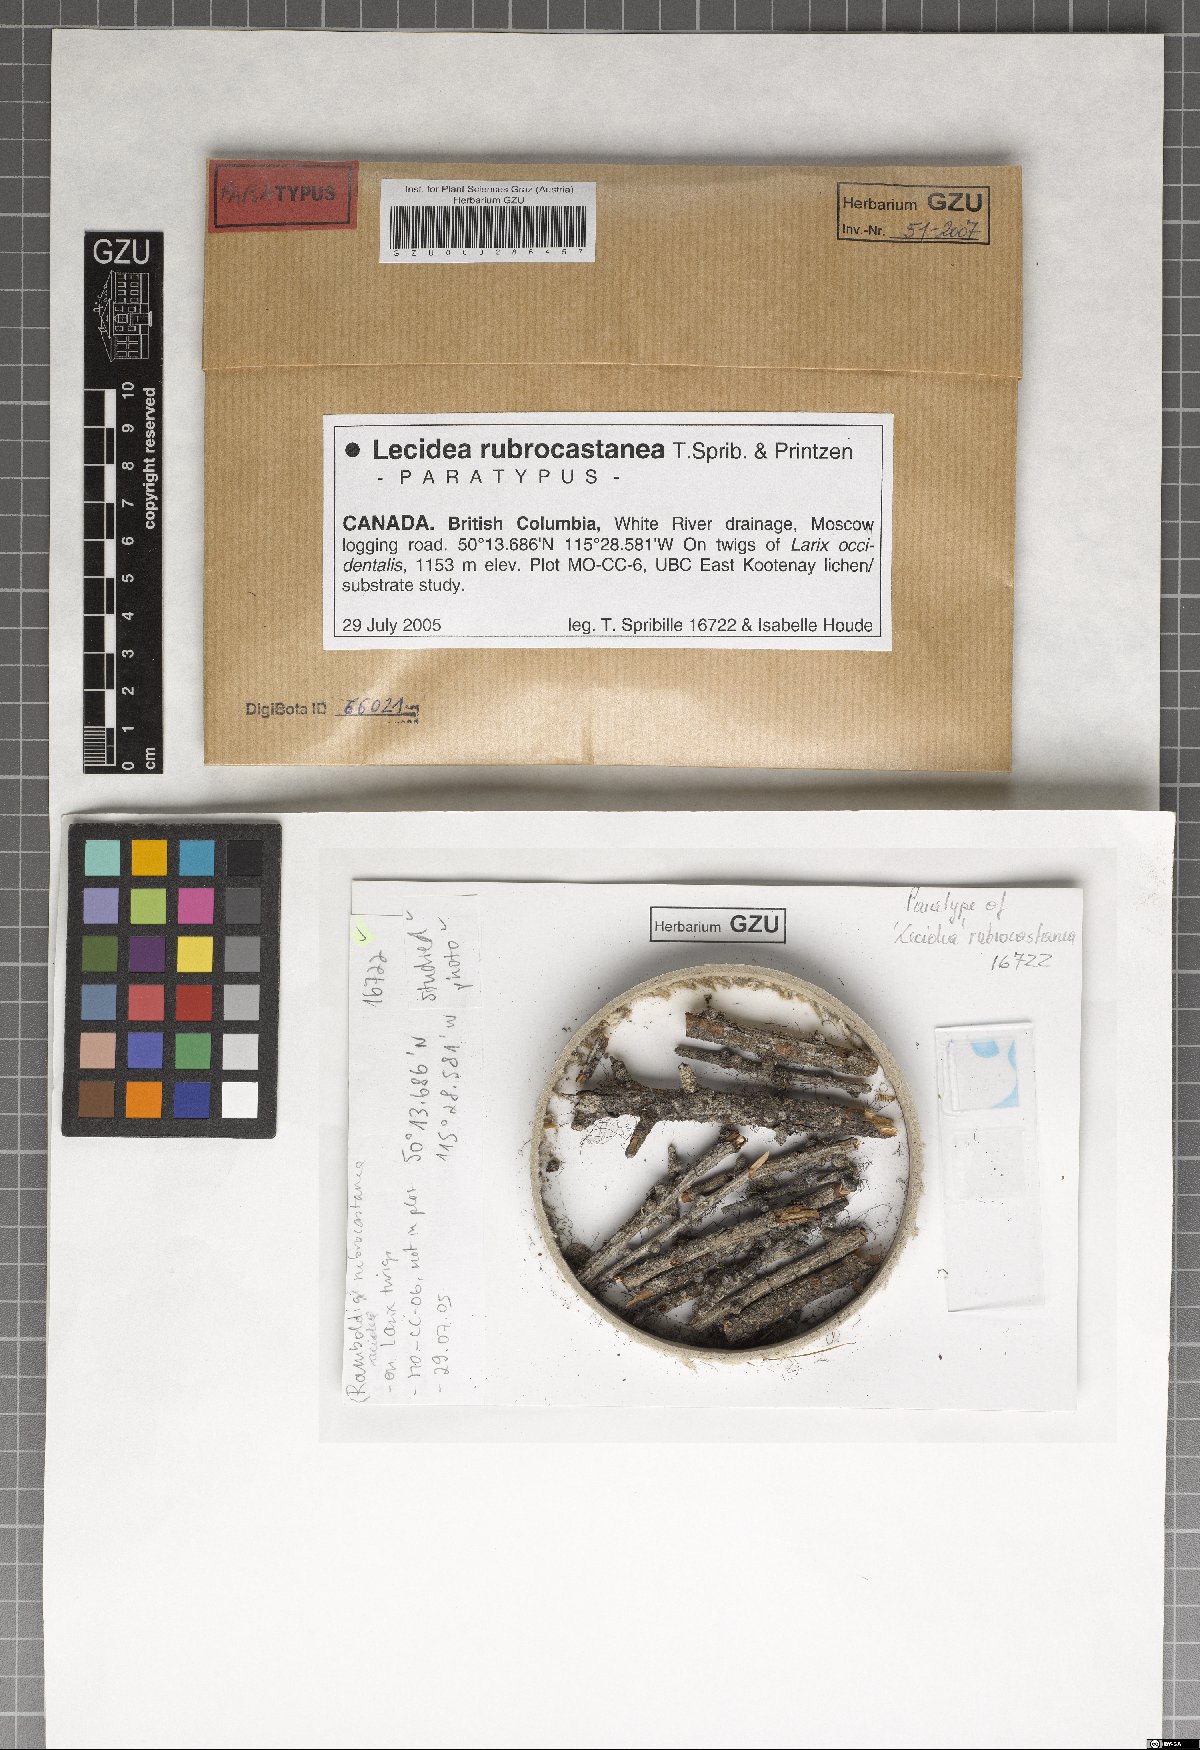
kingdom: Fungi
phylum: Ascomycota
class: Lecanoromycetes
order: Lecideales
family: Lecideaceae
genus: Lecidea
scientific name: Lecidea rubrocastanea
